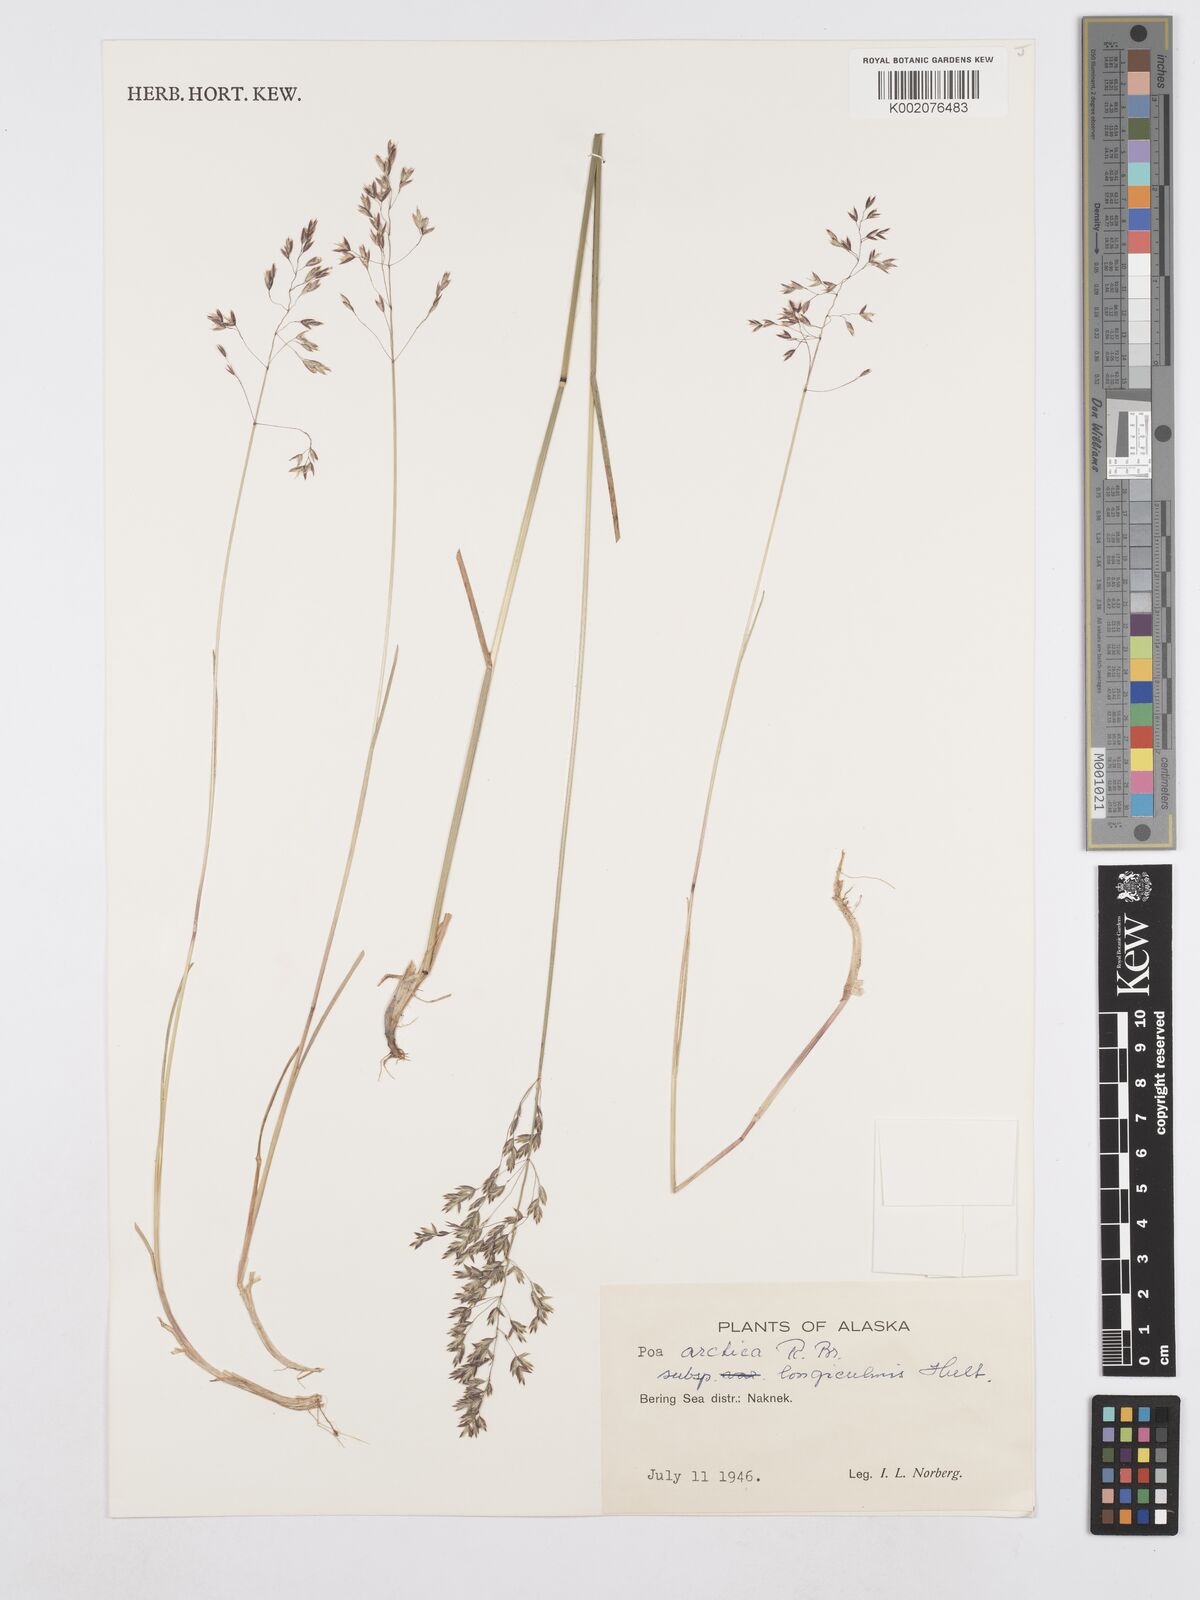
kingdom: Plantae
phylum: Tracheophyta
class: Liliopsida
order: Poales
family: Poaceae
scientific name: Poaceae
